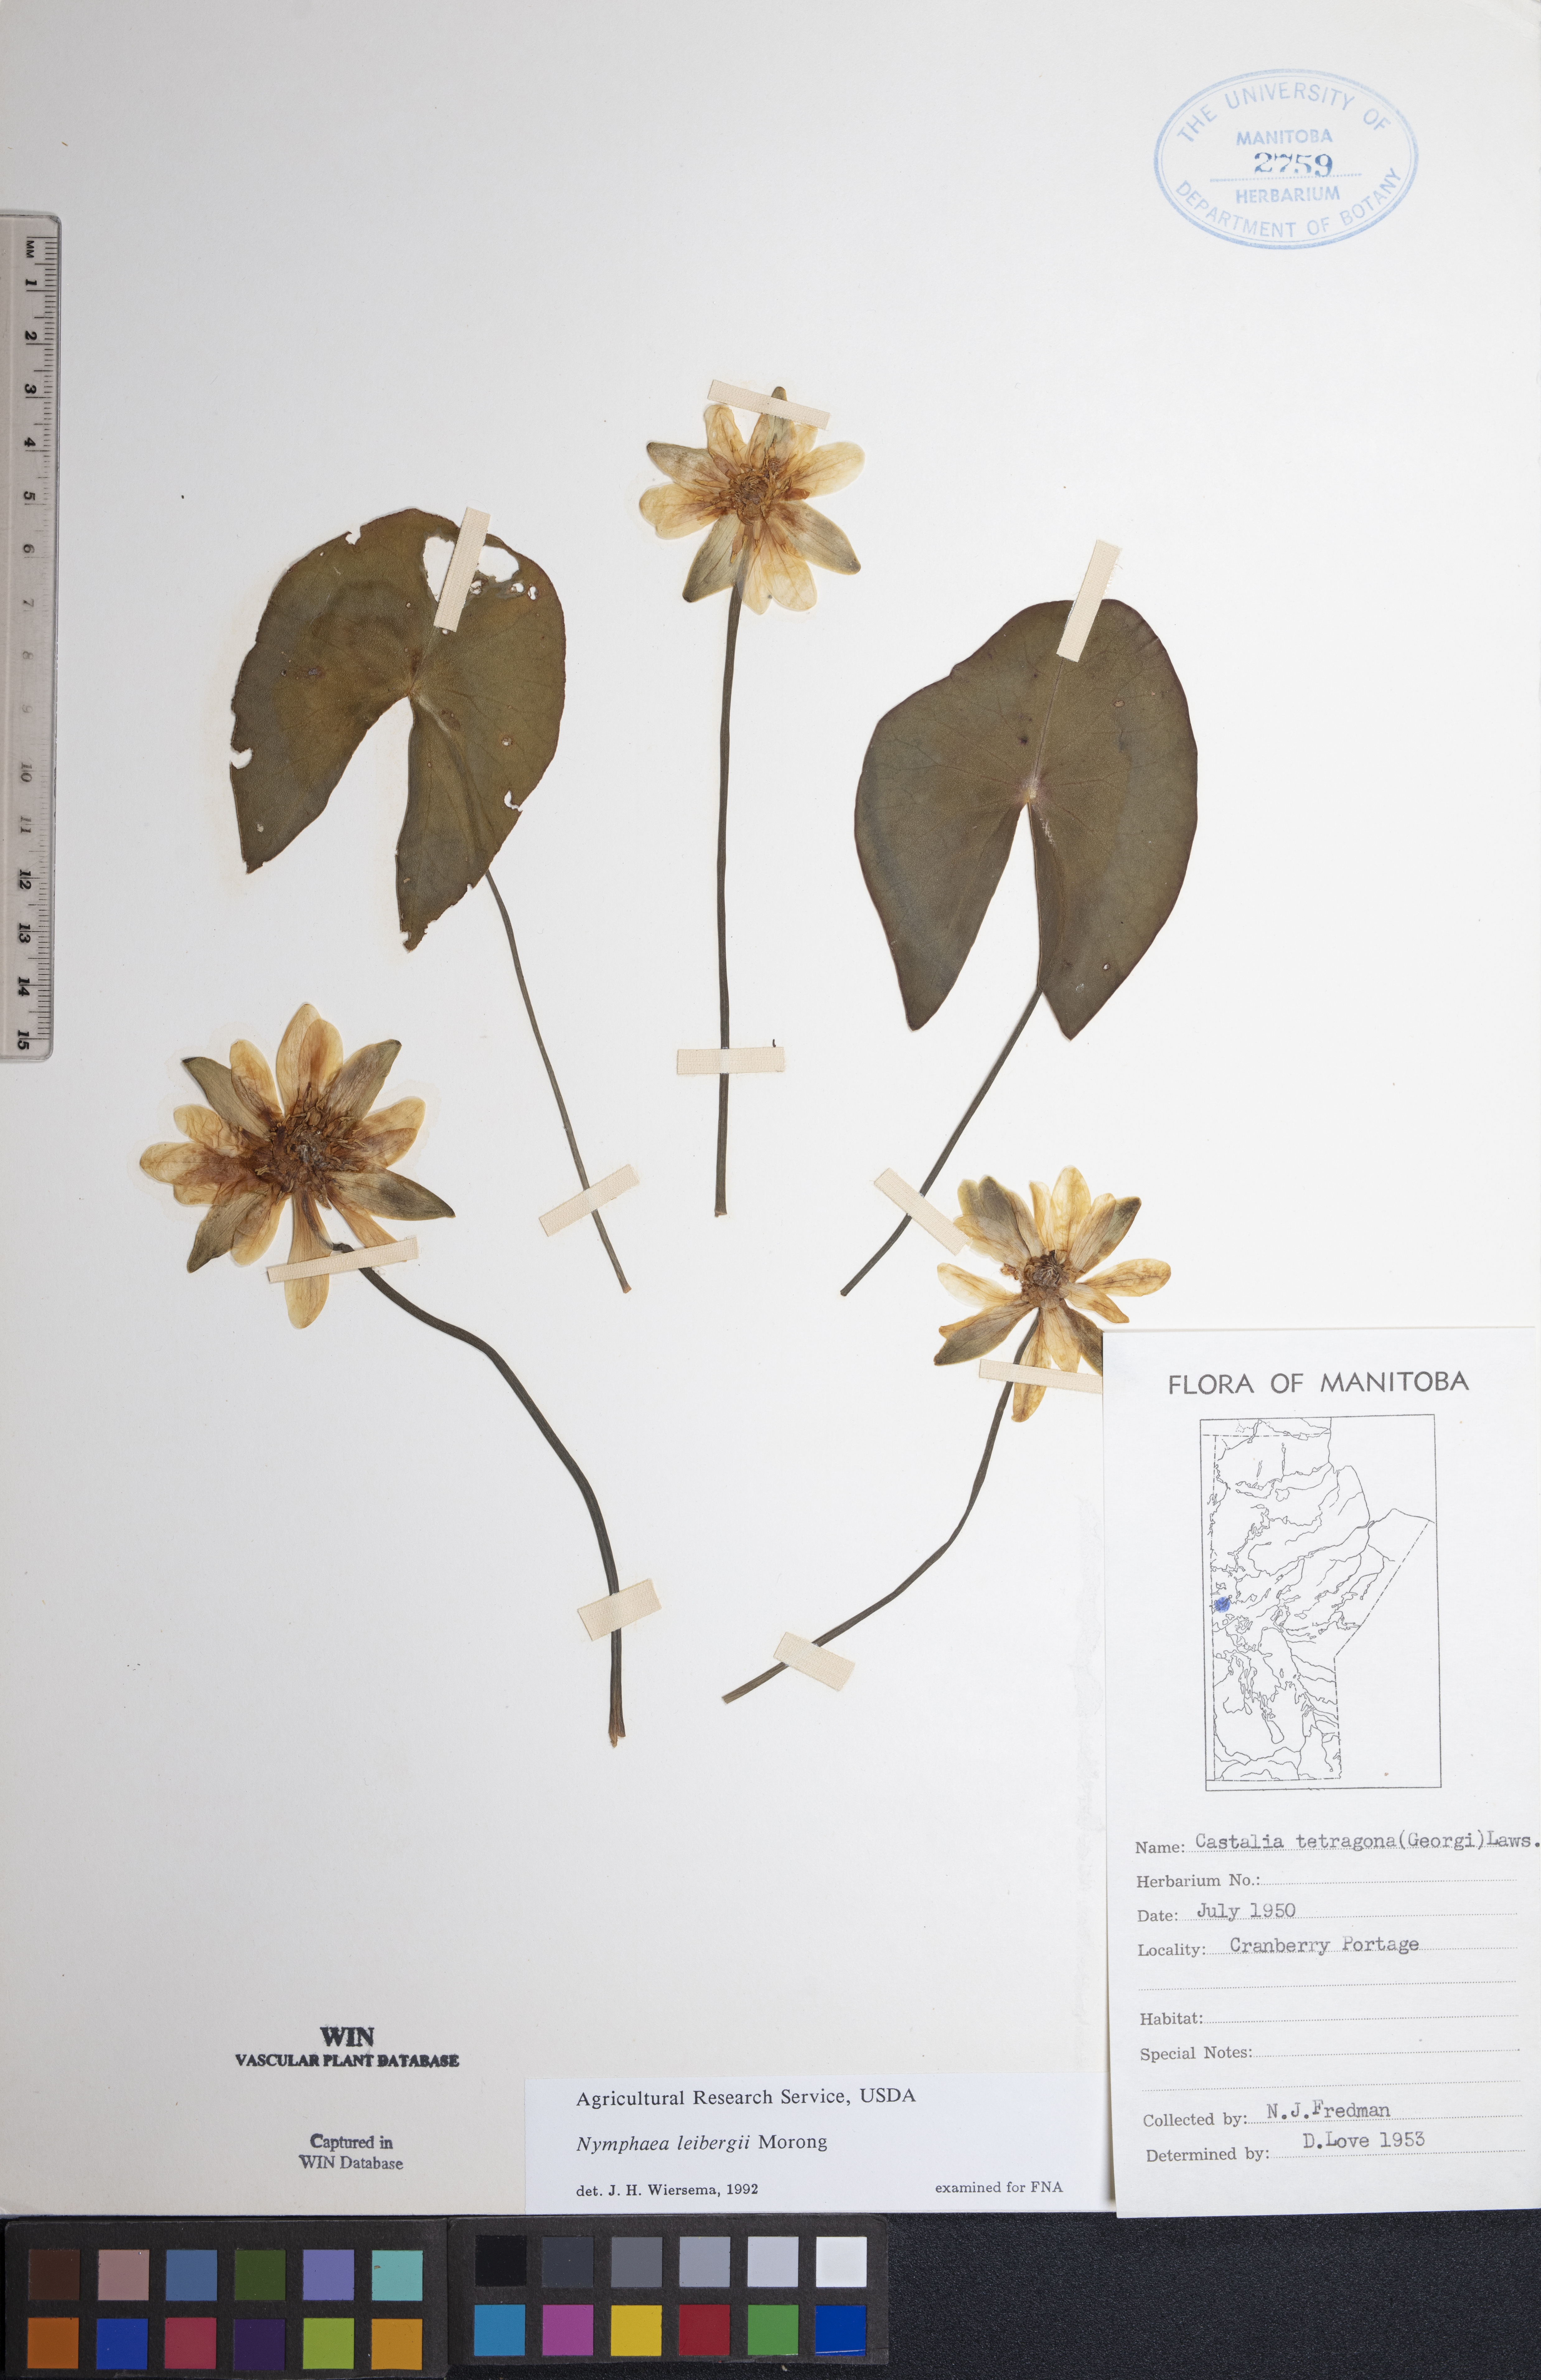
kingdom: Plantae
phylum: Tracheophyta
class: Magnoliopsida
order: Nymphaeales
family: Nymphaeaceae
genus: Nymphaea
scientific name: Nymphaea leibergii
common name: Dwarf water-lily
